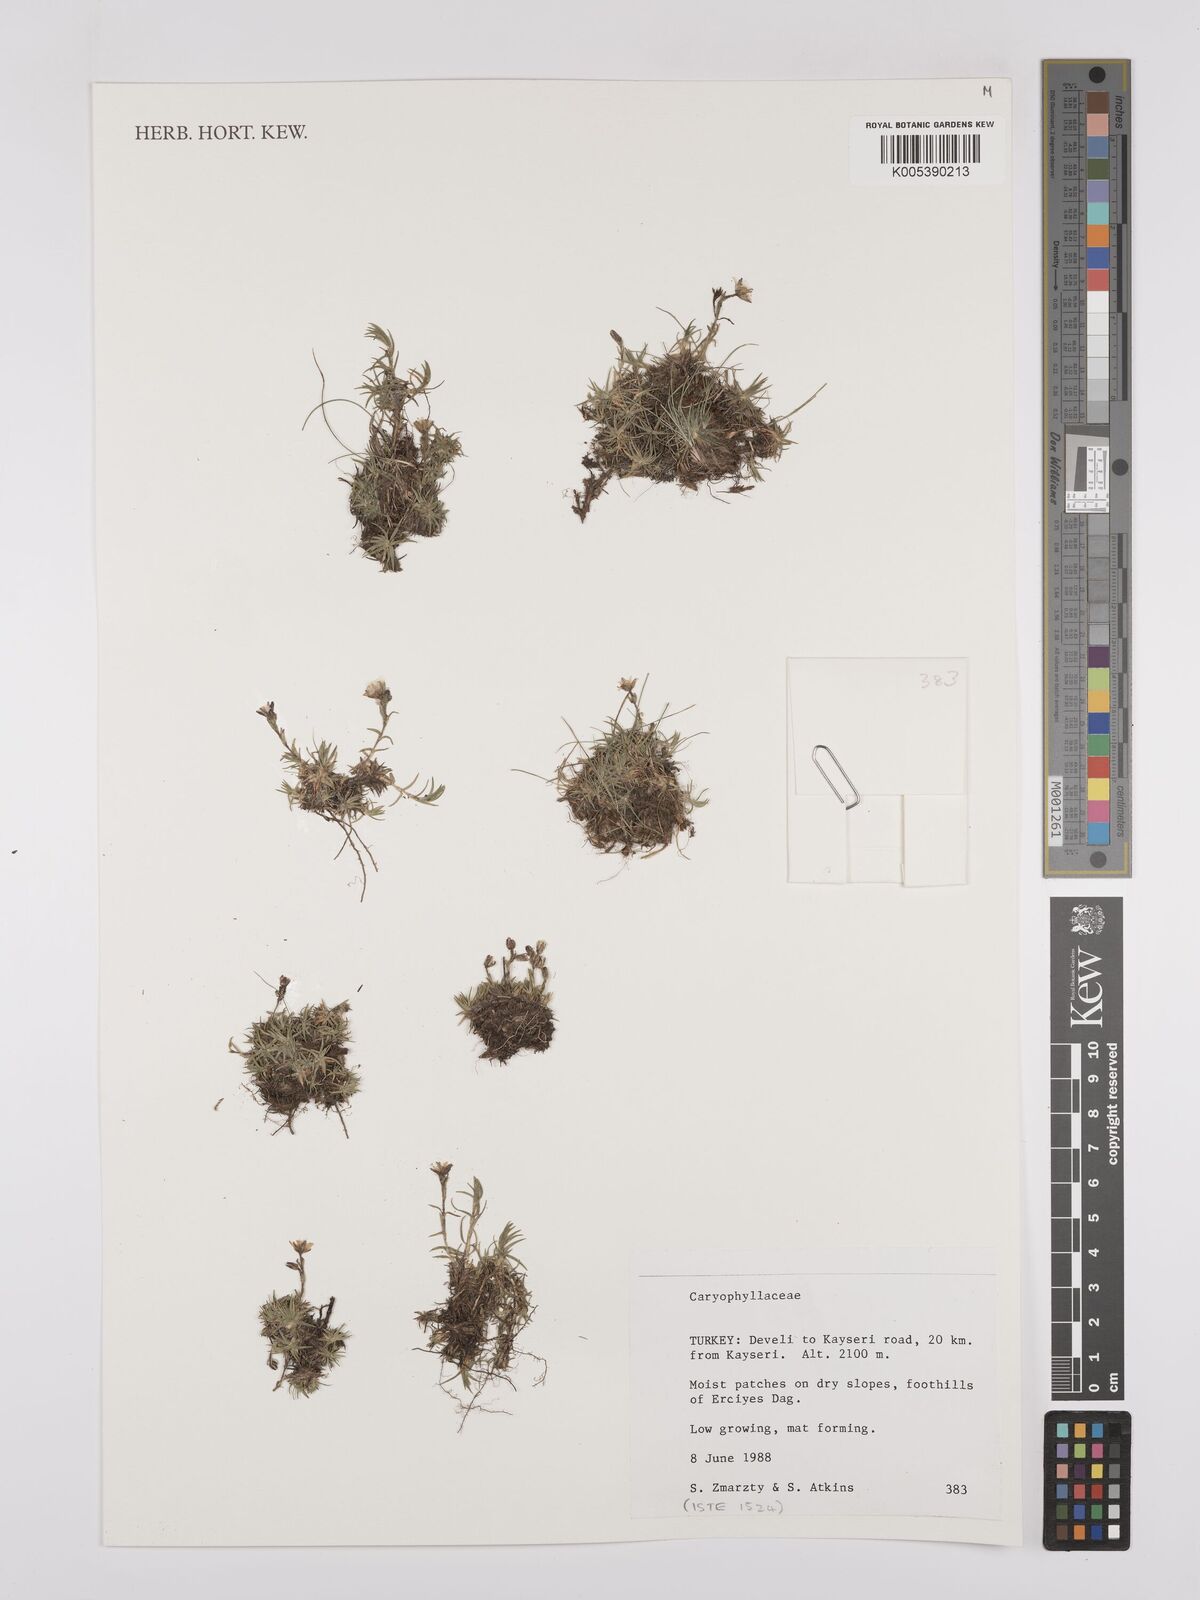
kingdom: Plantae
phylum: Tracheophyta
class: Magnoliopsida
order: Caryophyllales
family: Caryophyllaceae
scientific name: Caryophyllaceae
